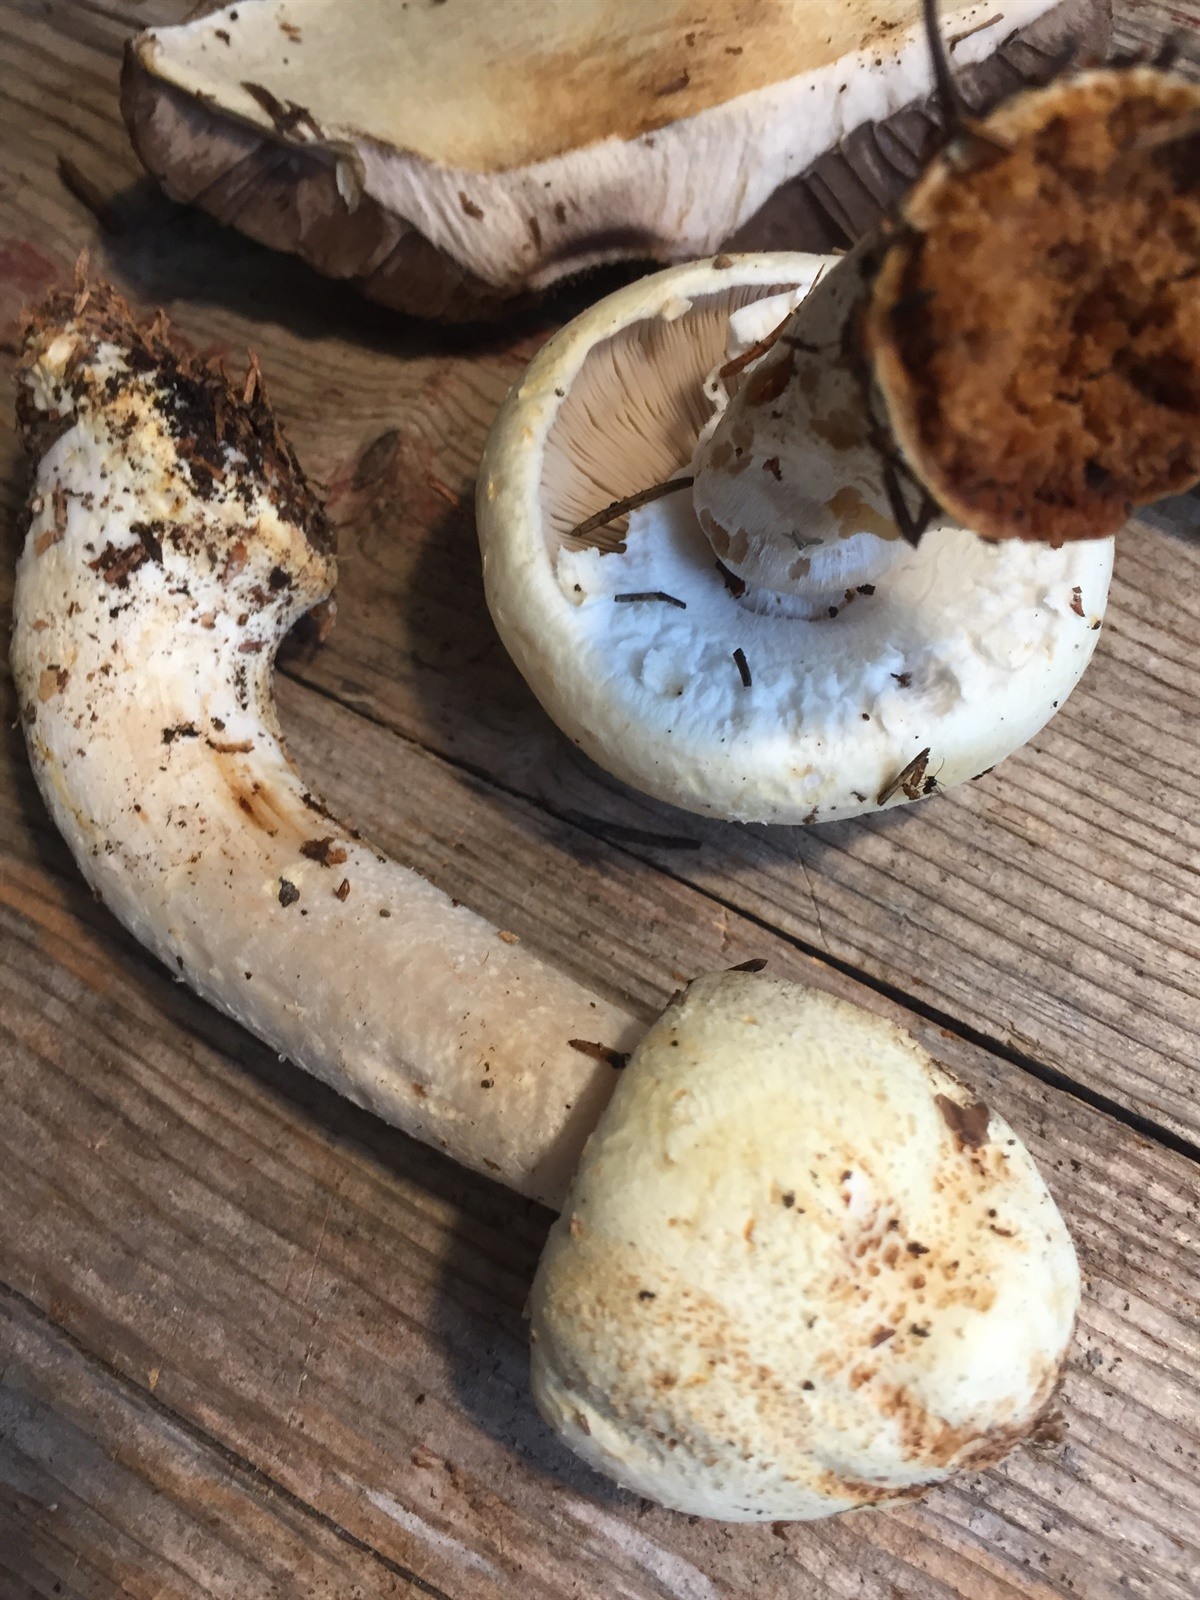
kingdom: Fungi
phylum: Basidiomycota
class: Agaricomycetes
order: Agaricales
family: Agaricaceae
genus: Agaricus
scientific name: Agaricus summensis
